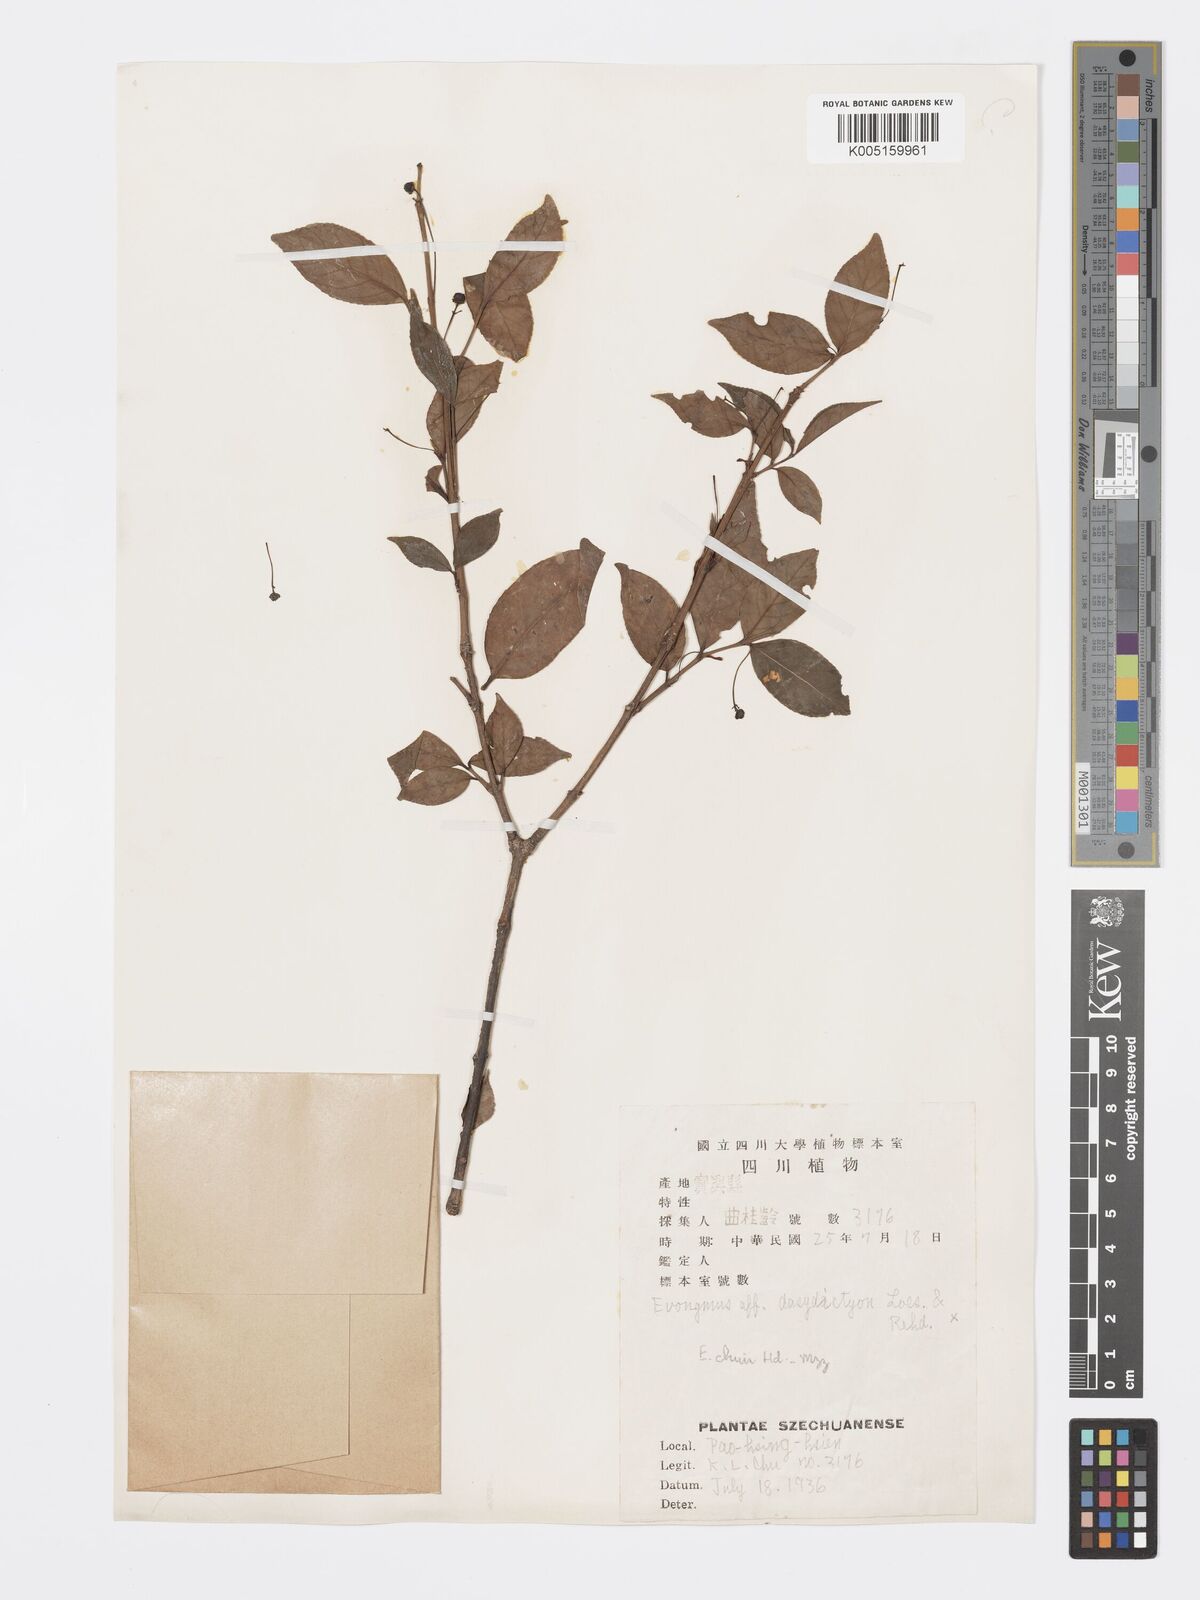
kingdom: Plantae
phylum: Tracheophyta
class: Magnoliopsida
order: Celastrales
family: Celastraceae
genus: Euonymus
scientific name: Euonymus chui
